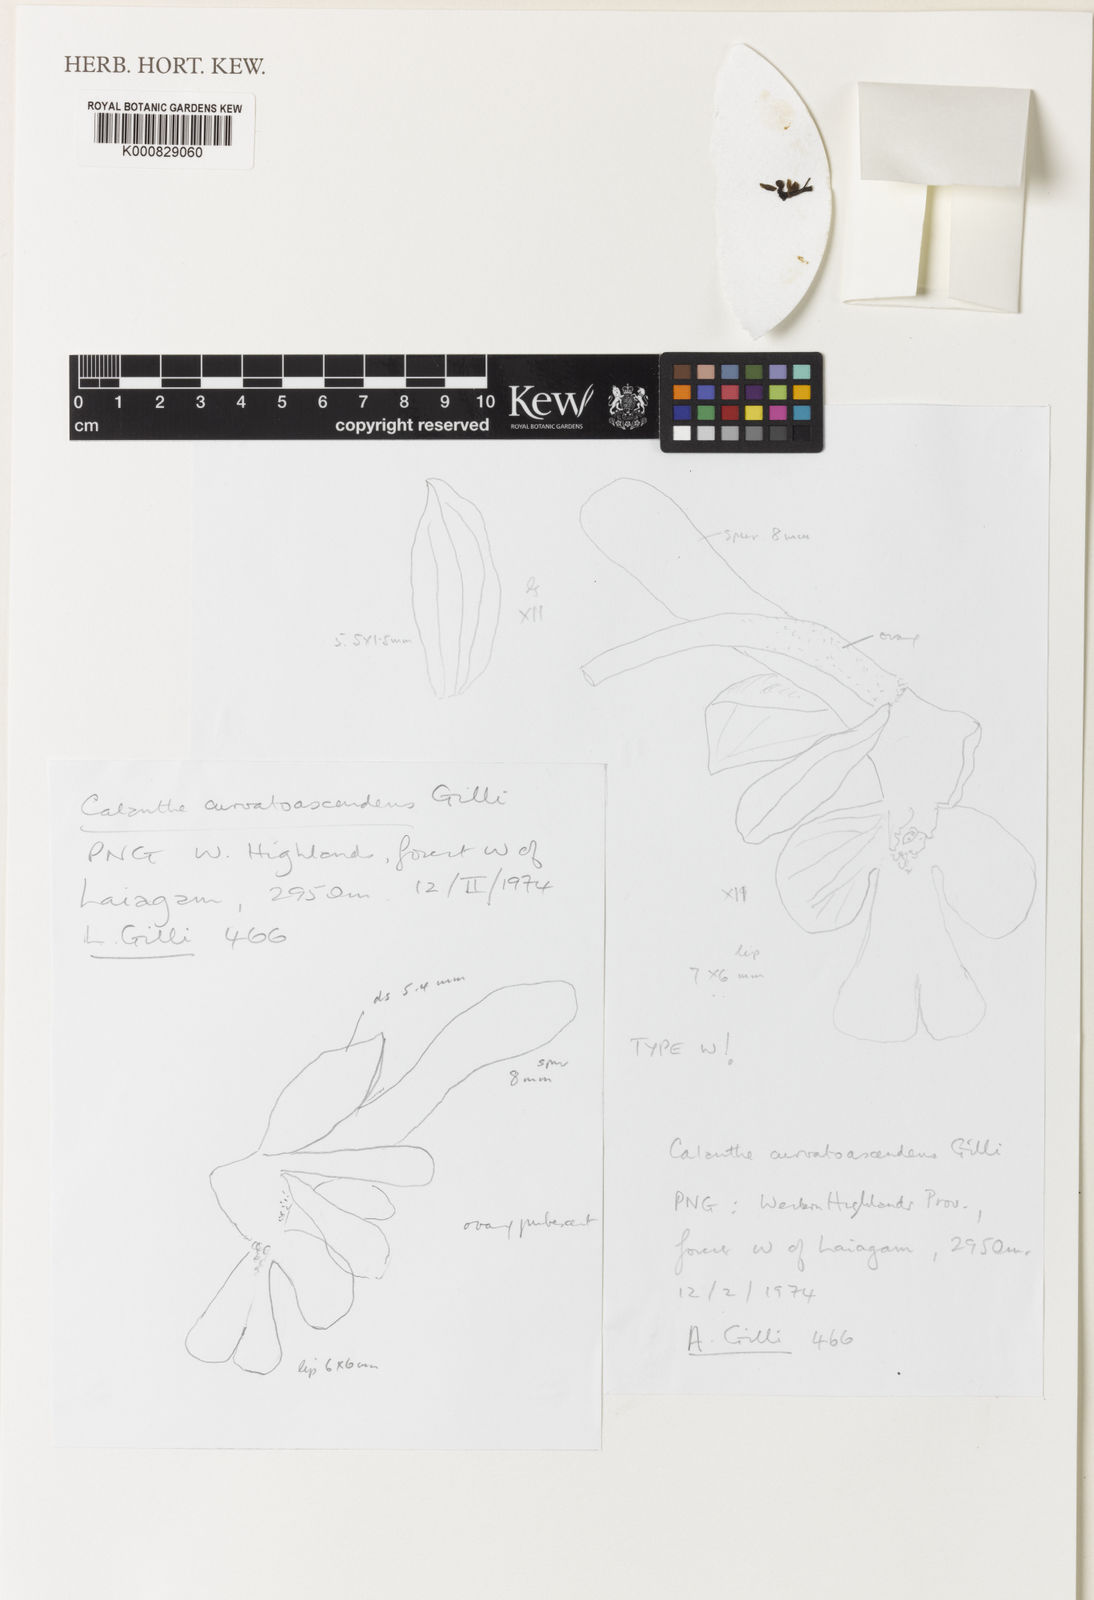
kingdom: Plantae
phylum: Tracheophyta
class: Liliopsida
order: Asparagales
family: Orchidaceae
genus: Calanthe
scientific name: Calanthe curvatoascendens
